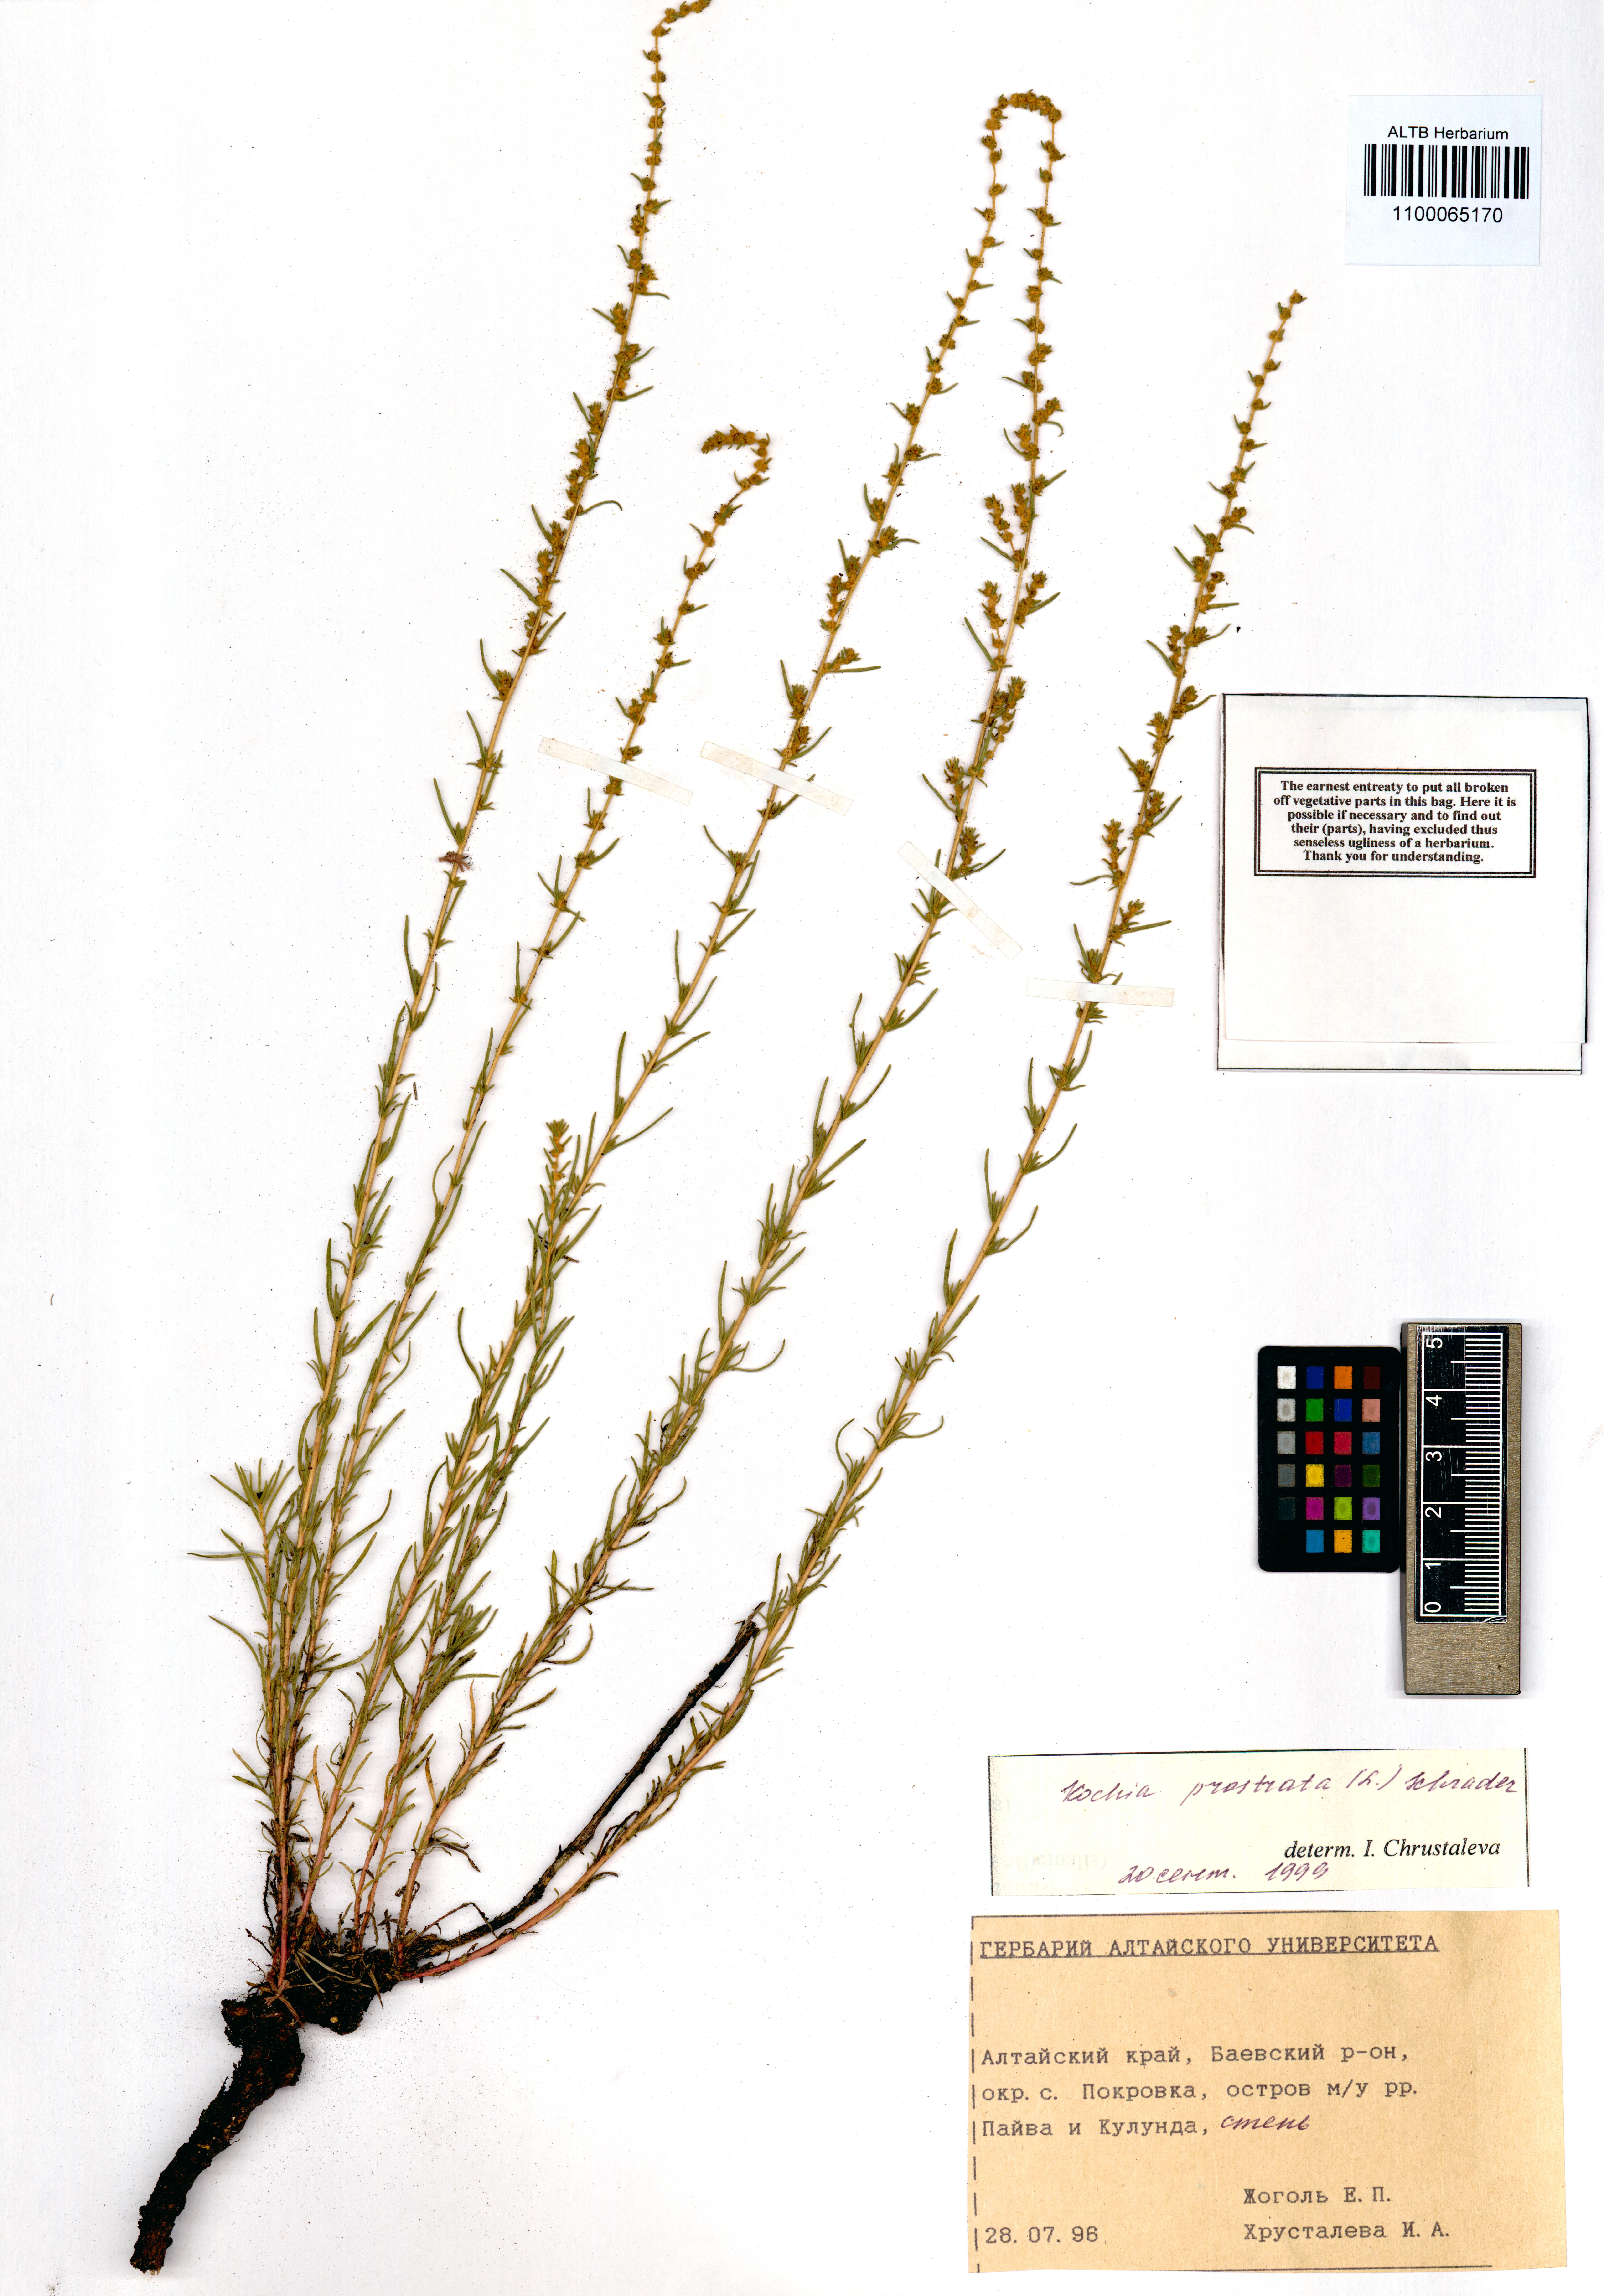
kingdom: Plantae
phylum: Tracheophyta
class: Magnoliopsida
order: Caryophyllales
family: Amaranthaceae
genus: Bassia
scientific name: Bassia prostrata
